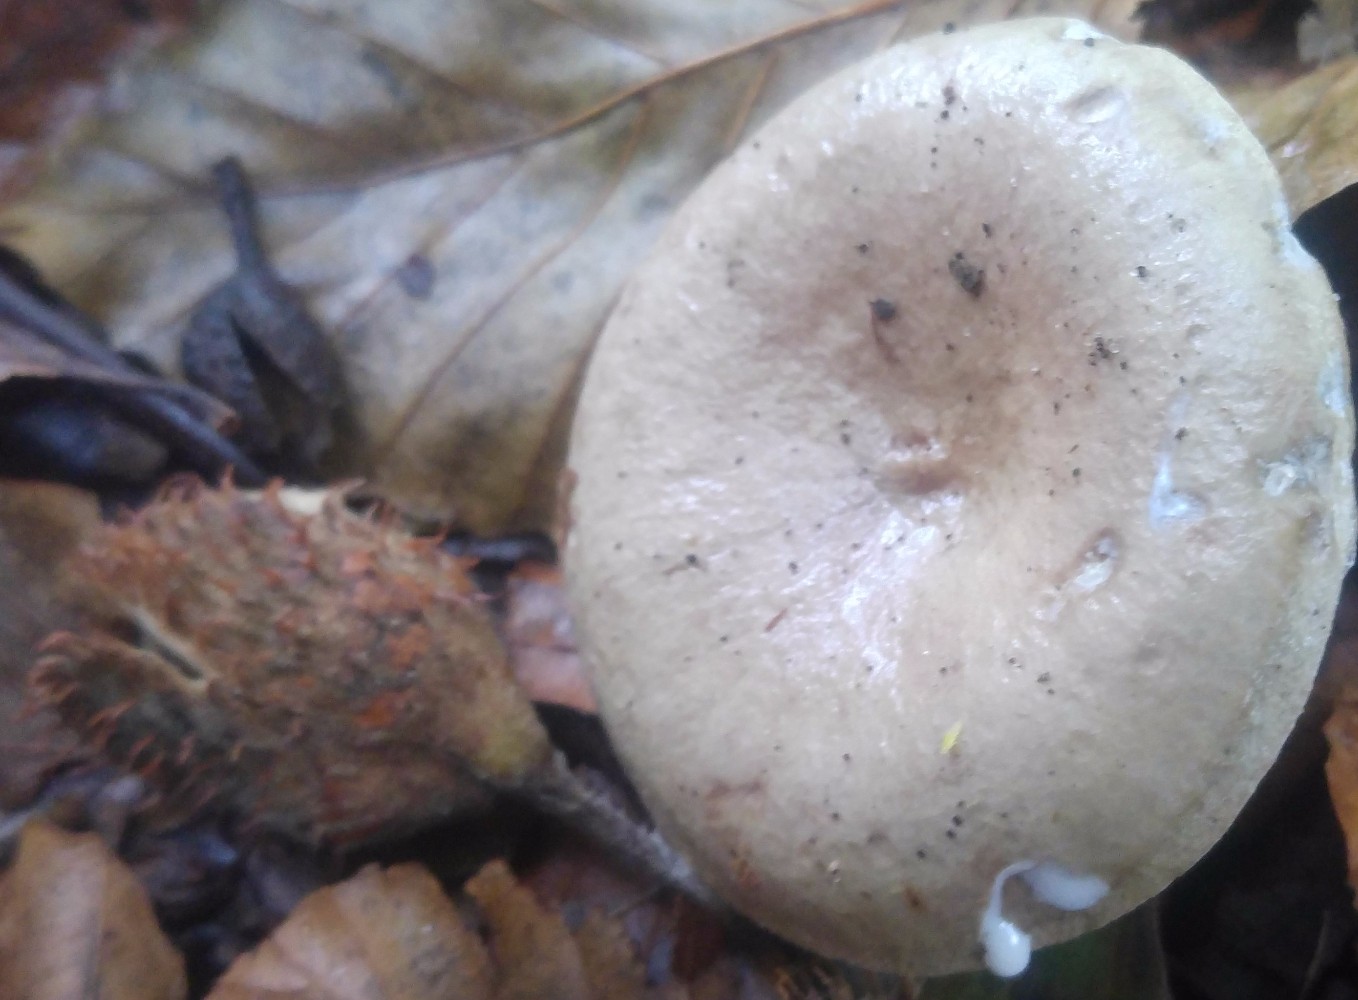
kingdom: Fungi
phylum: Basidiomycota
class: Agaricomycetes
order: Russulales
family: Russulaceae
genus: Lactarius
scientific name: Lactarius blennius
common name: dråbeplettet mælkehat
